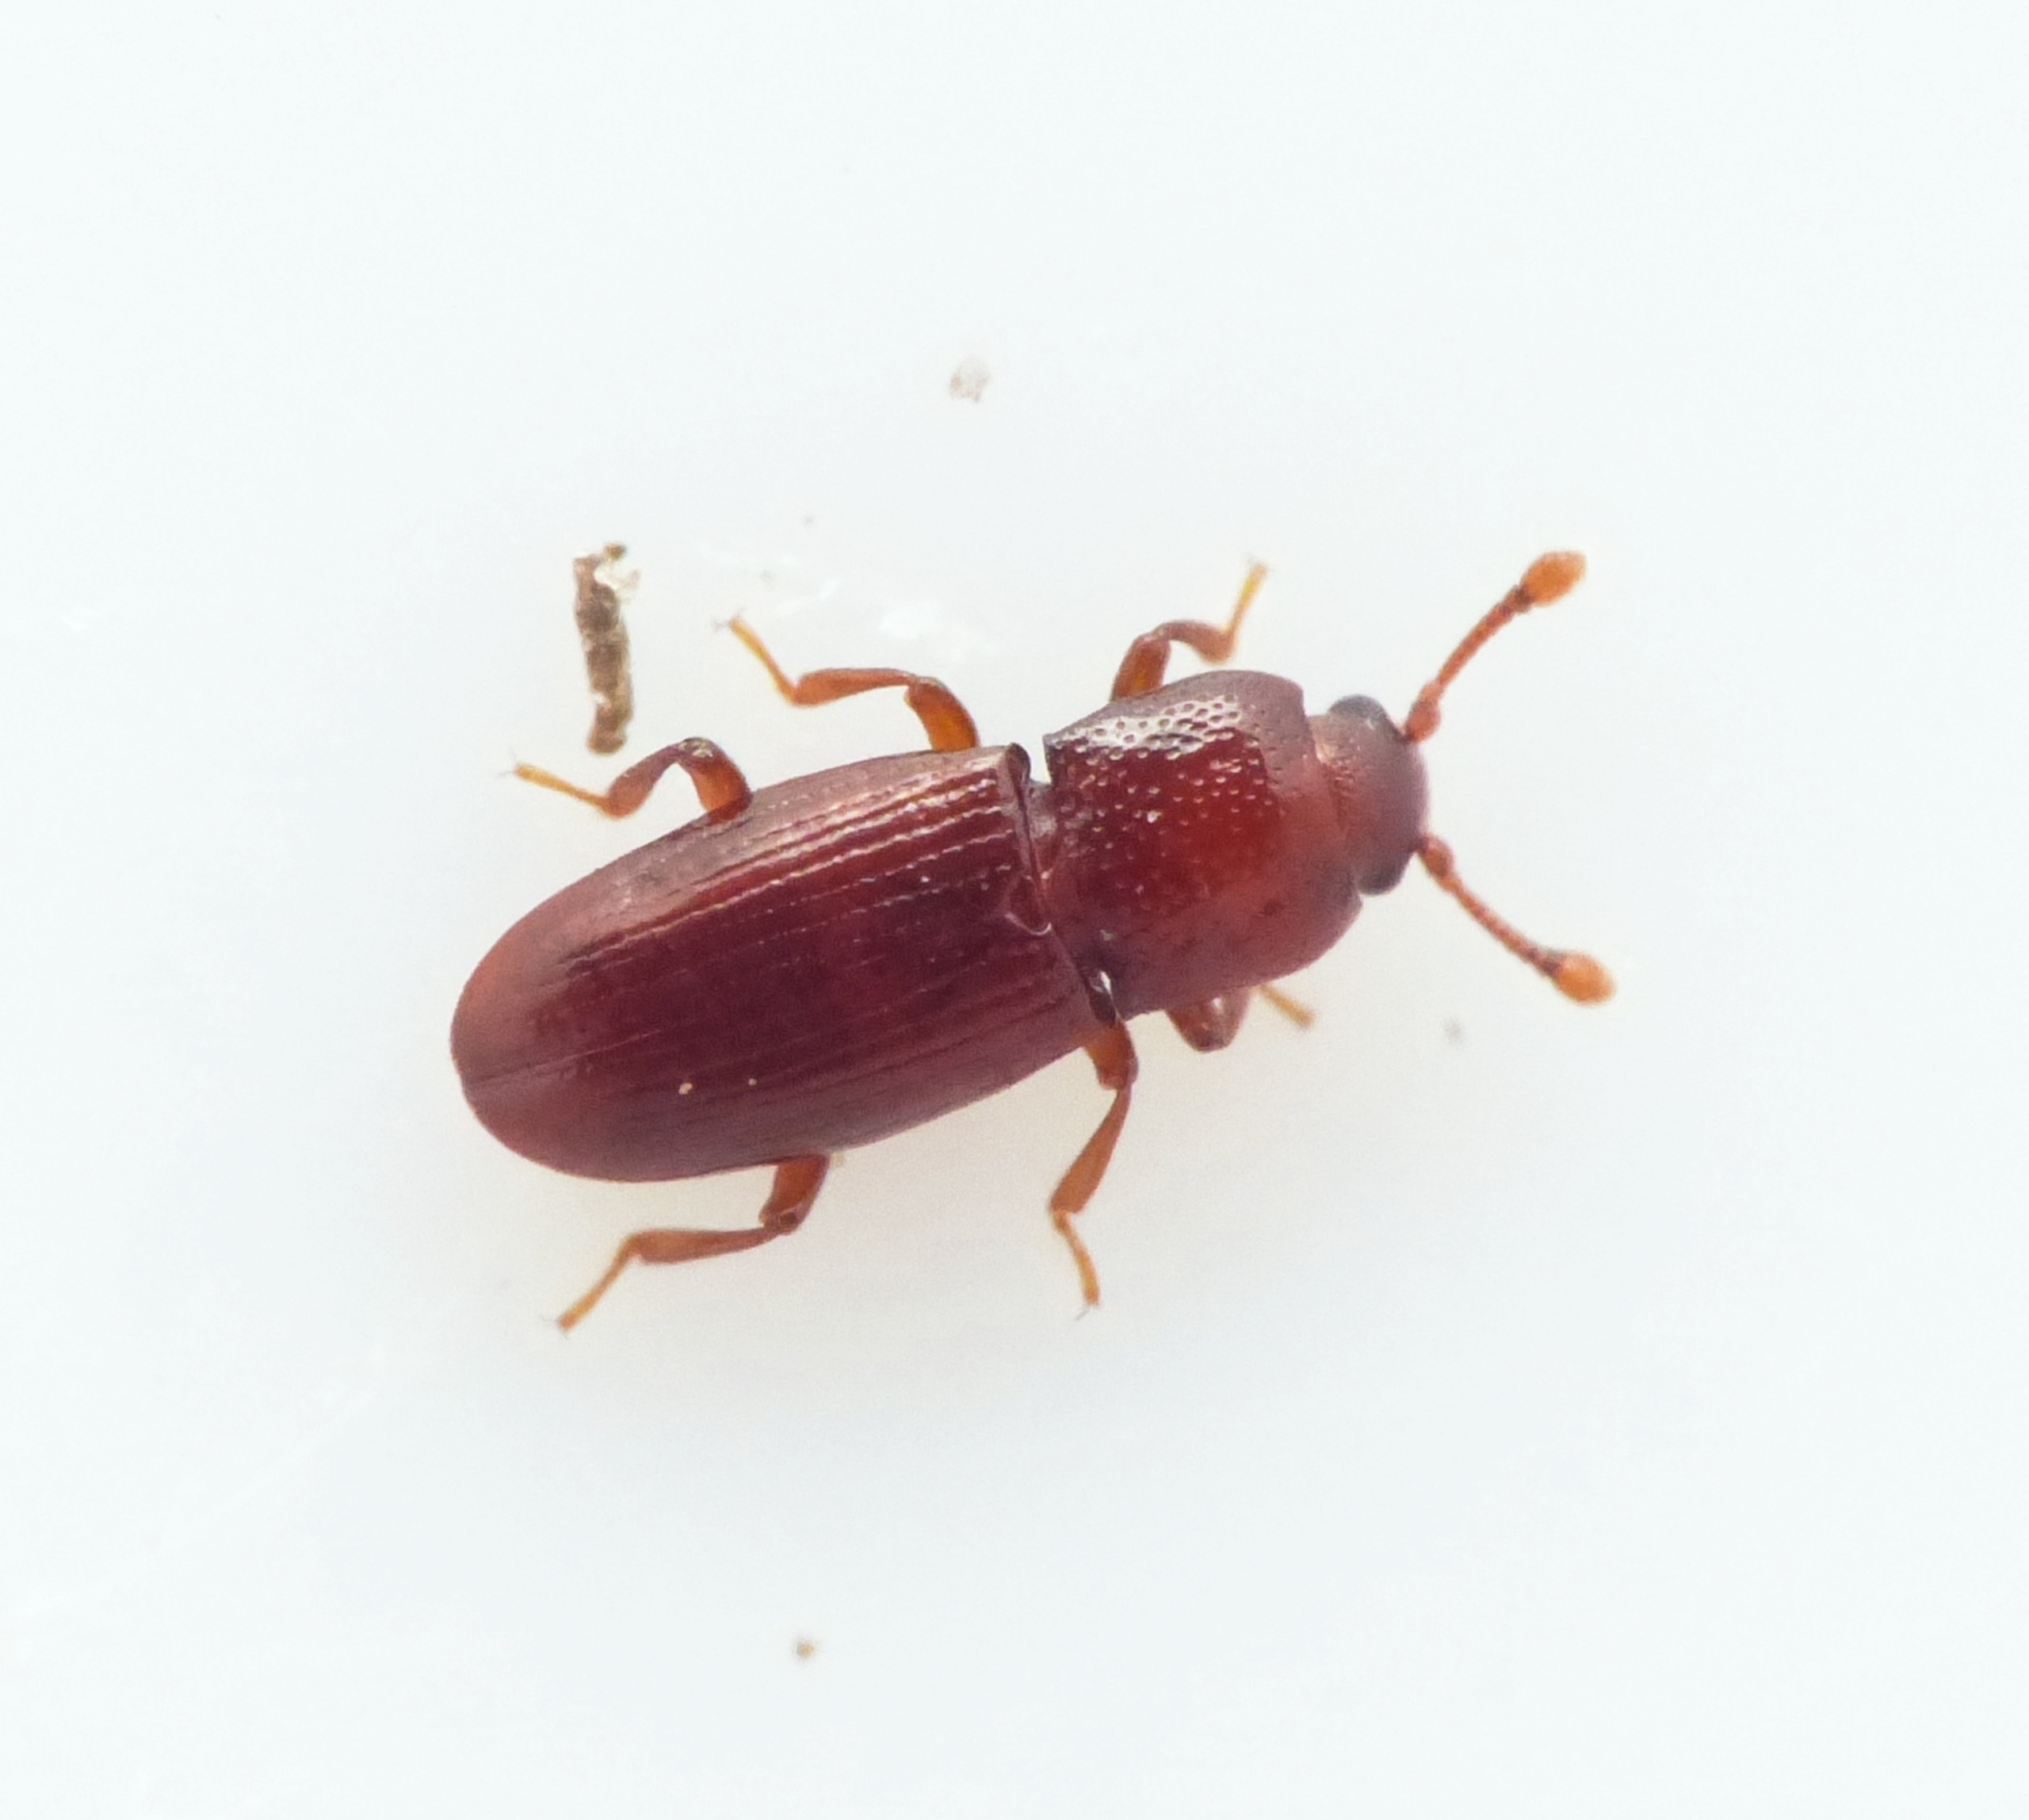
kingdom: Animalia
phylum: Arthropoda
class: Insecta
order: Coleoptera
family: Cerylonidae
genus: Cerylon
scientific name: Cerylon ferrugineum
